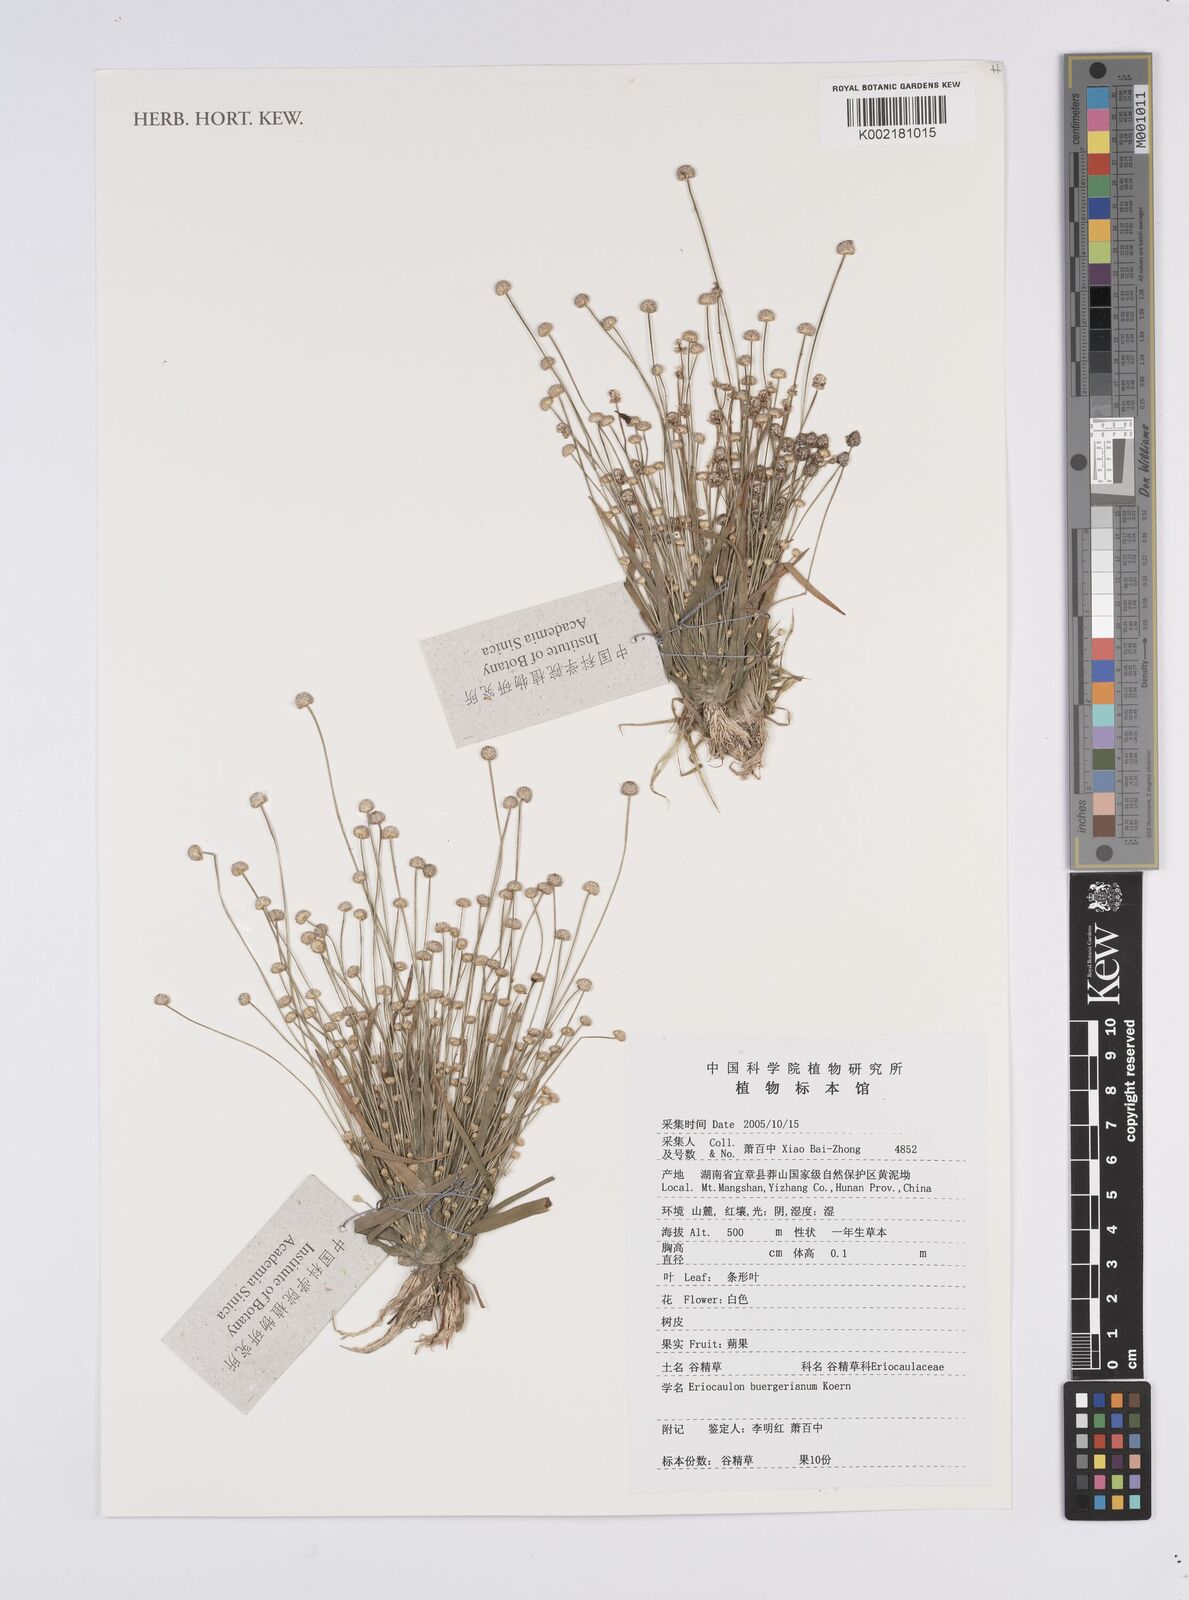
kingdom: Plantae
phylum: Tracheophyta
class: Liliopsida
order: Poales
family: Eriocaulaceae
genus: Eriocaulon
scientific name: Eriocaulon buergerianum
